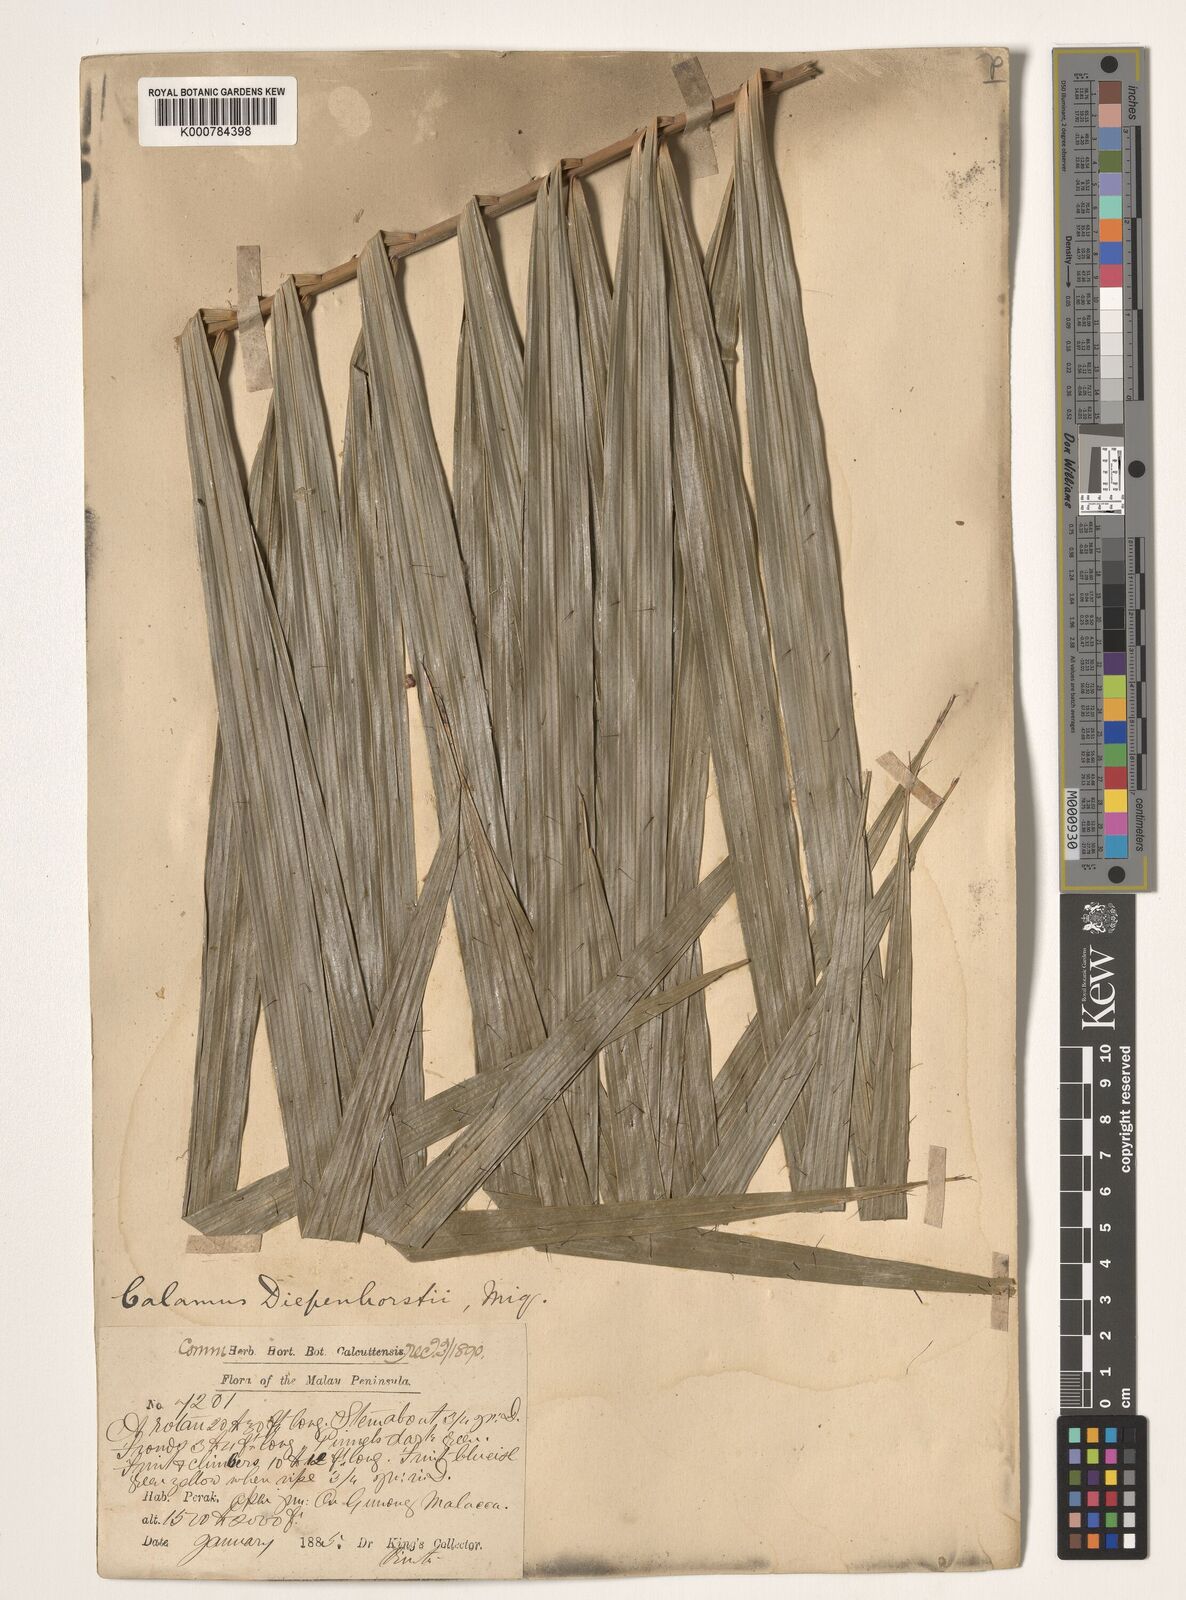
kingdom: Plantae
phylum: Tracheophyta
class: Liliopsida
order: Arecales
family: Arecaceae
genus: Calamus
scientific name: Calamus diepenhorstii
